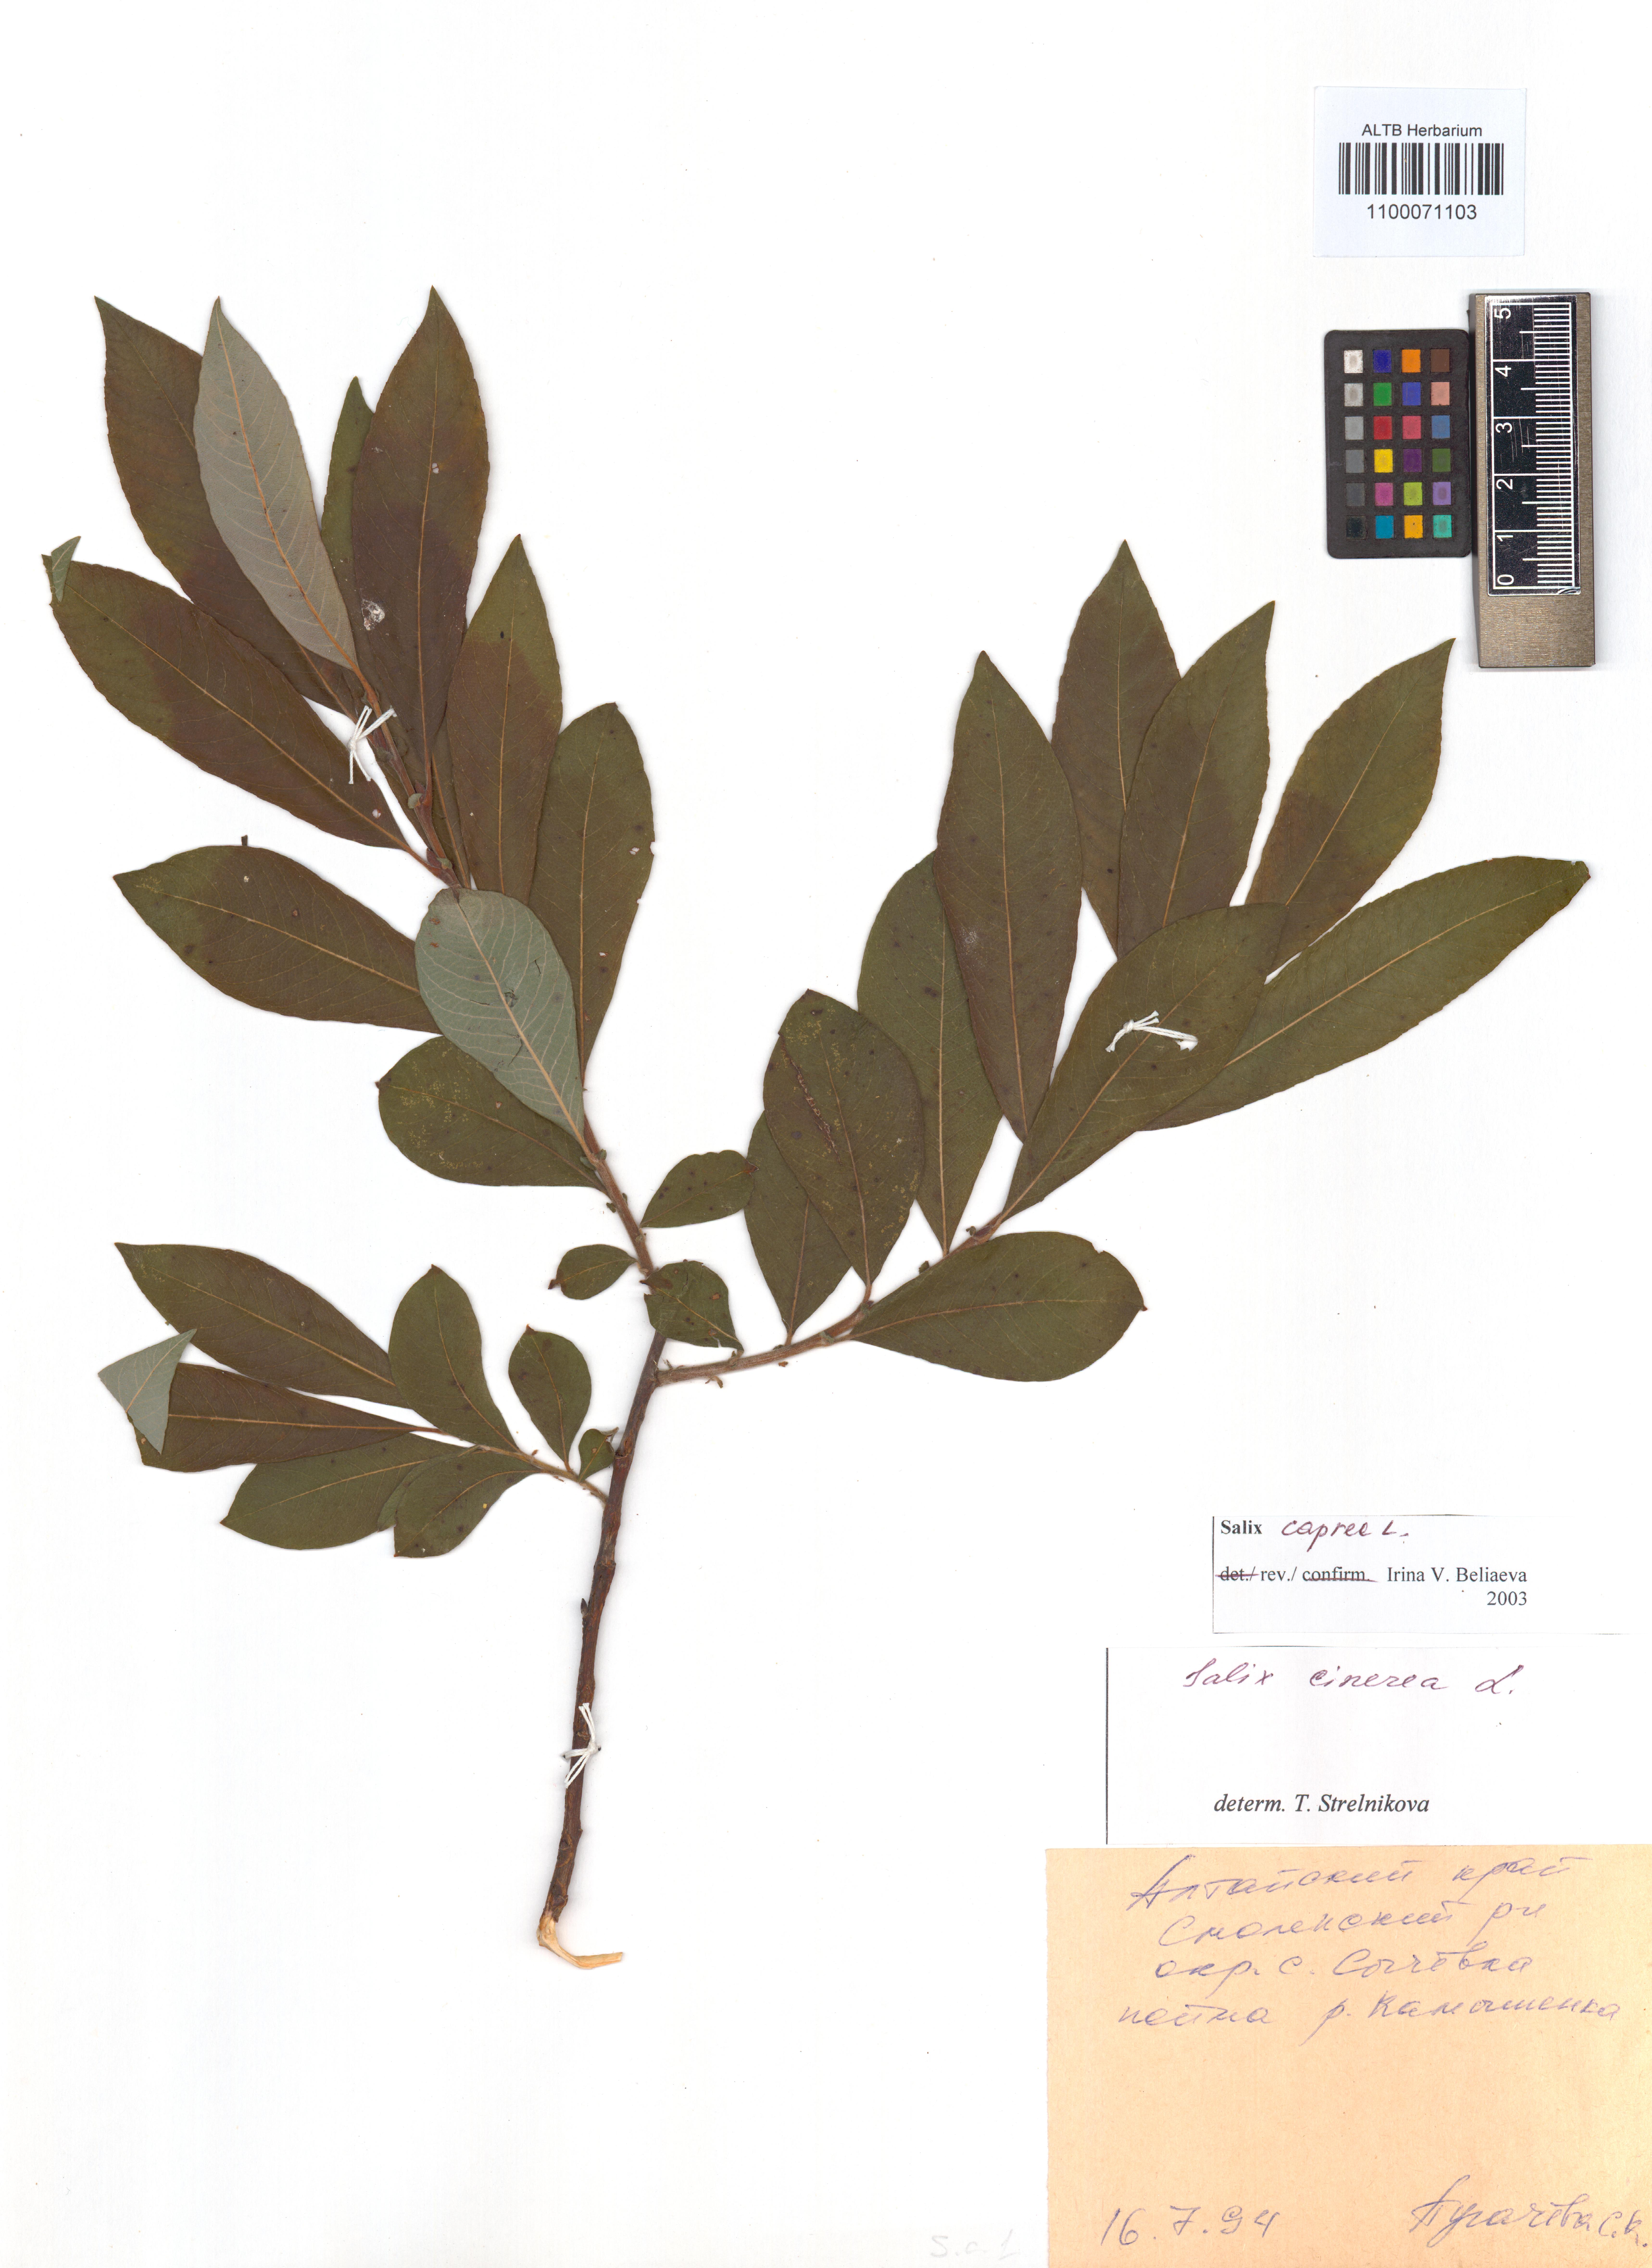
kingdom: Plantae
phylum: Tracheophyta
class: Magnoliopsida
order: Malpighiales
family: Salicaceae
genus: Salix
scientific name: Salix caprea
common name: Goat willow
